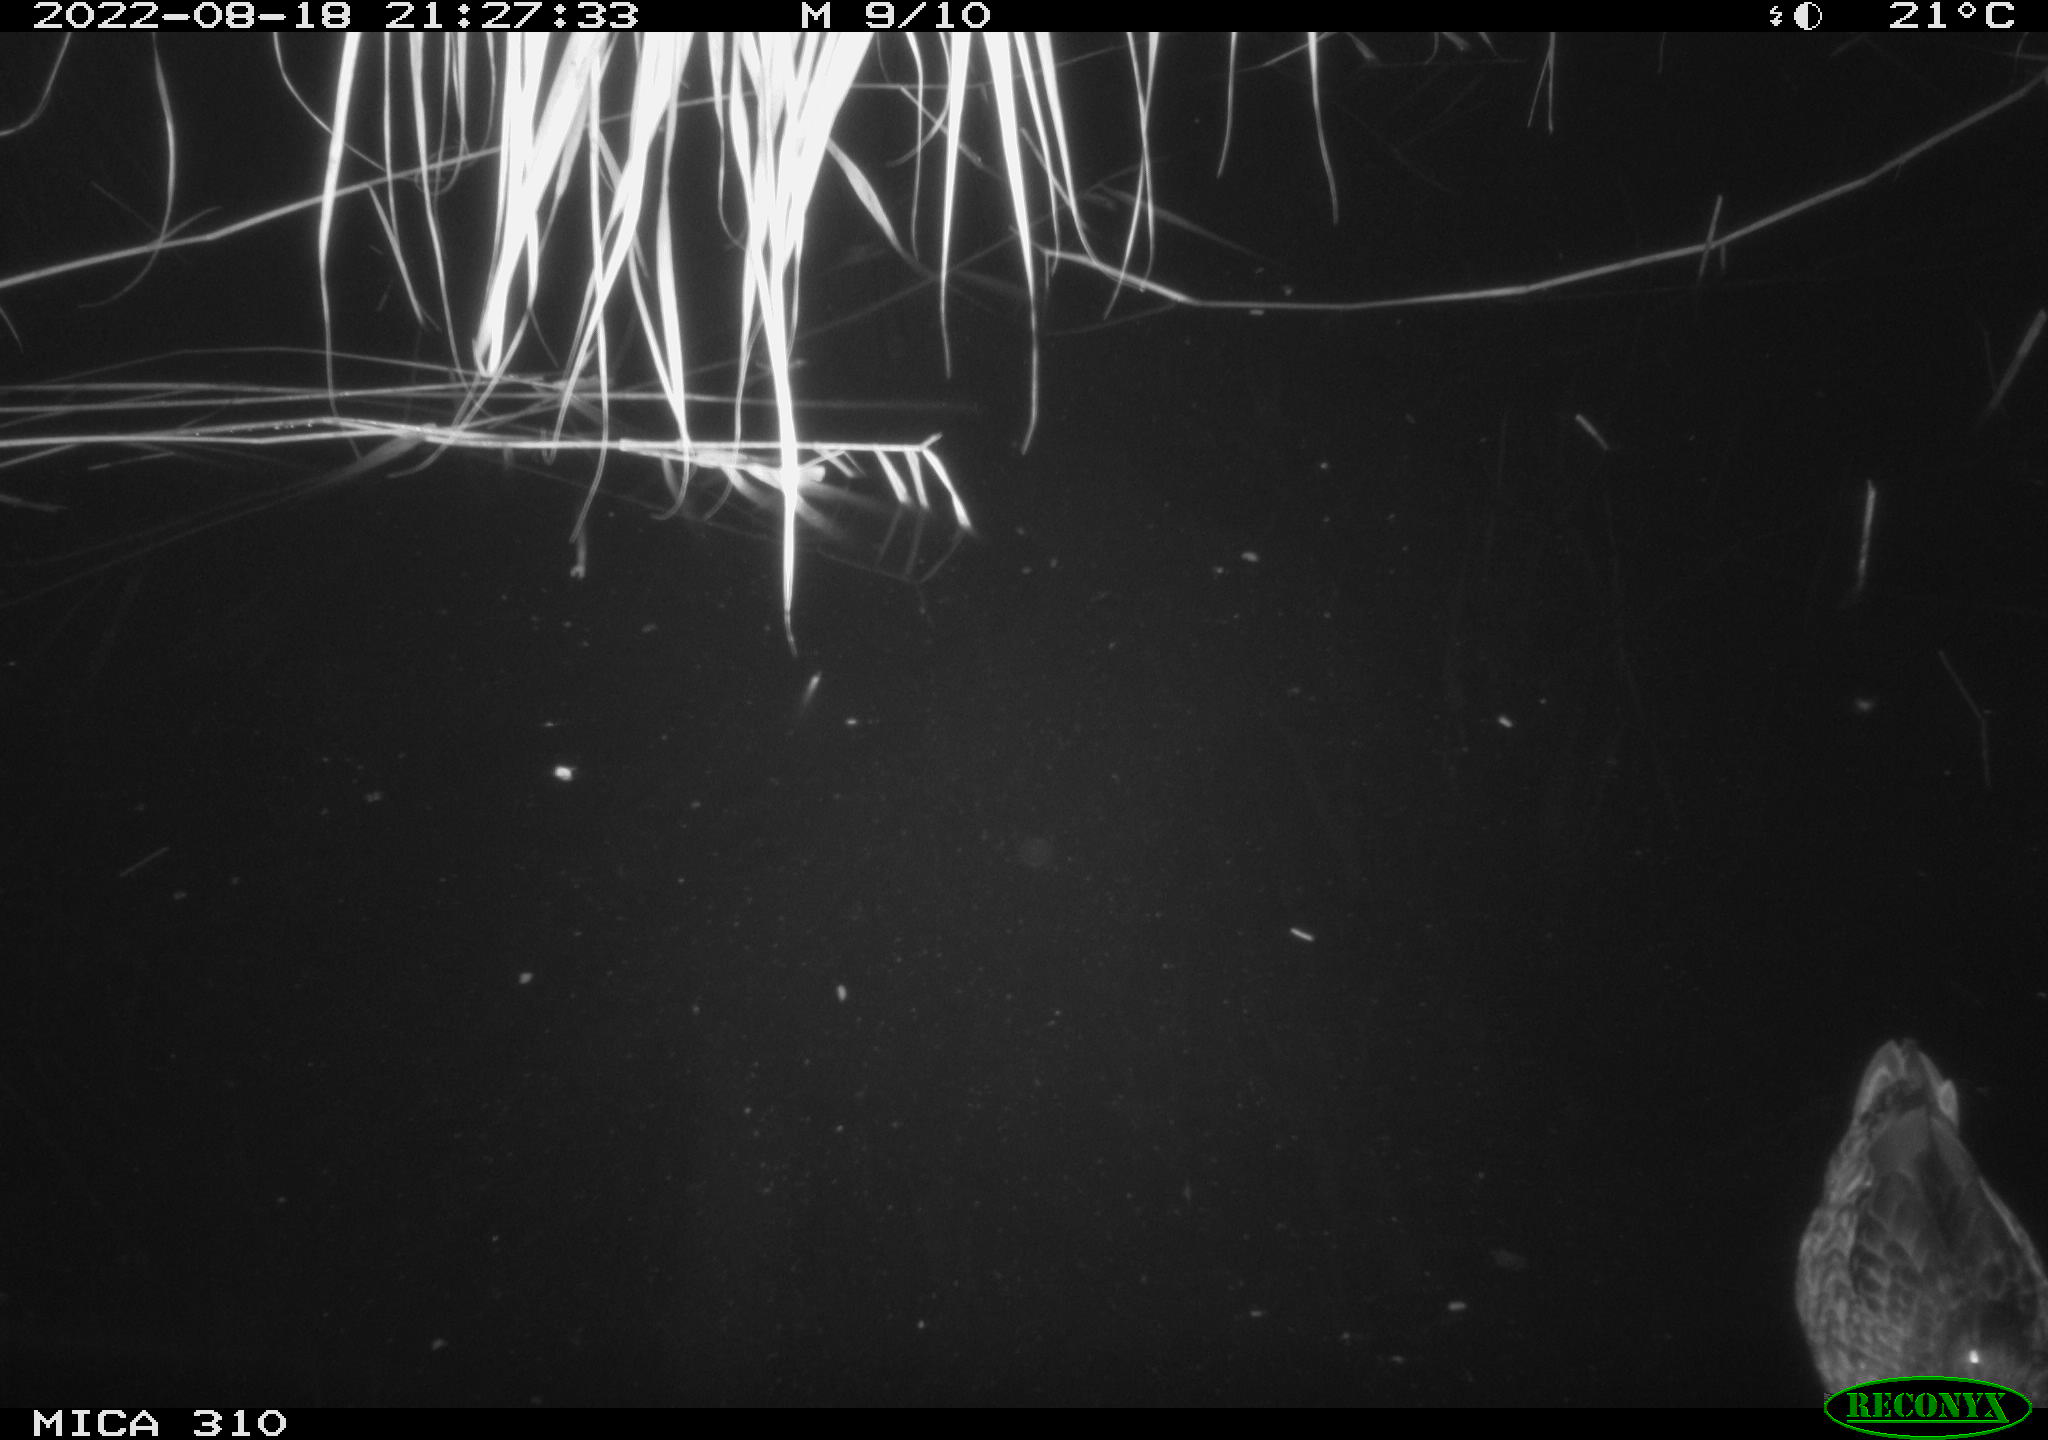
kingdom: Animalia
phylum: Chordata
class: Aves
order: Anseriformes
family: Anatidae
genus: Anas
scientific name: Anas platyrhynchos
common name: Mallard
